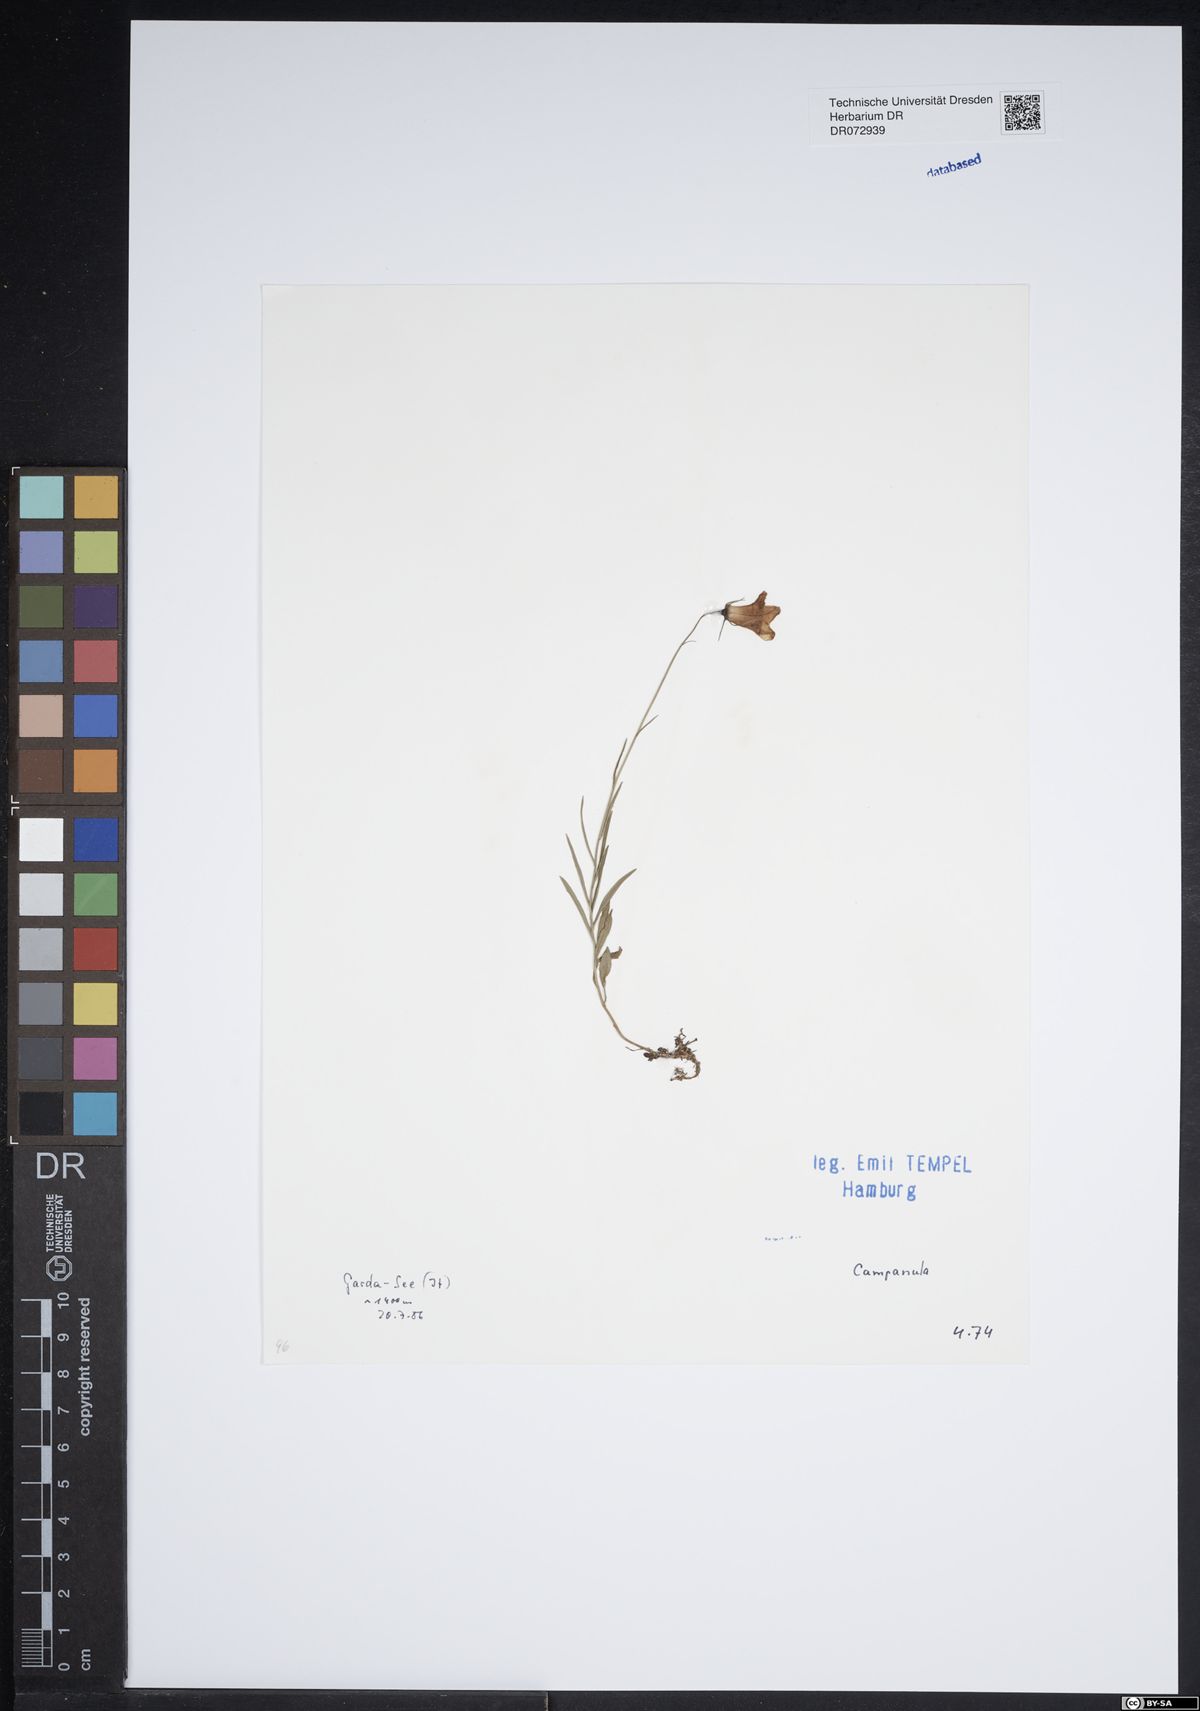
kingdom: Plantae
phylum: Tracheophyta
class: Magnoliopsida
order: Asterales
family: Campanulaceae
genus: Campanula
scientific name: Campanula
